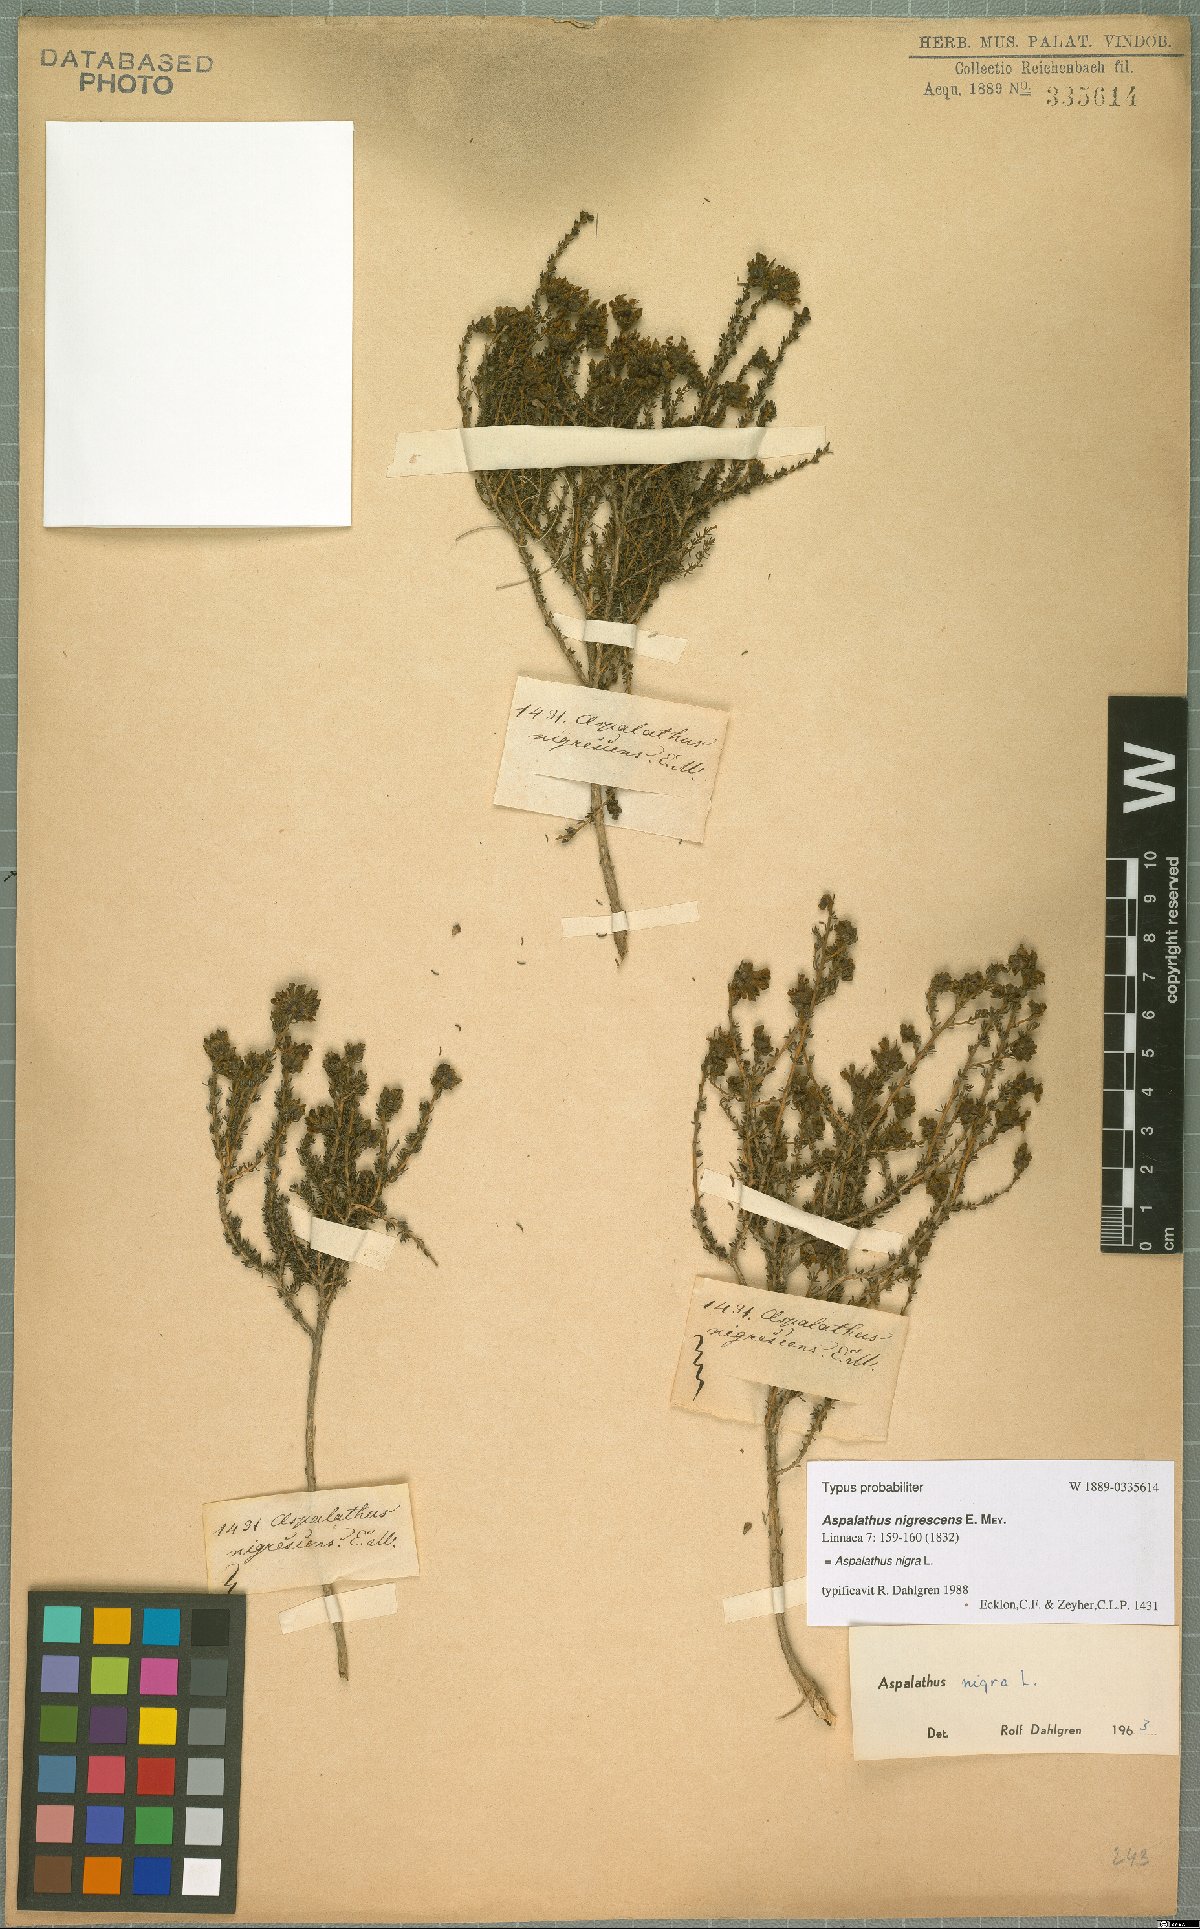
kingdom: Plantae
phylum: Tracheophyta
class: Magnoliopsida
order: Fabales
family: Fabaceae
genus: Aspalathus
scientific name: Aspalathus nigra
